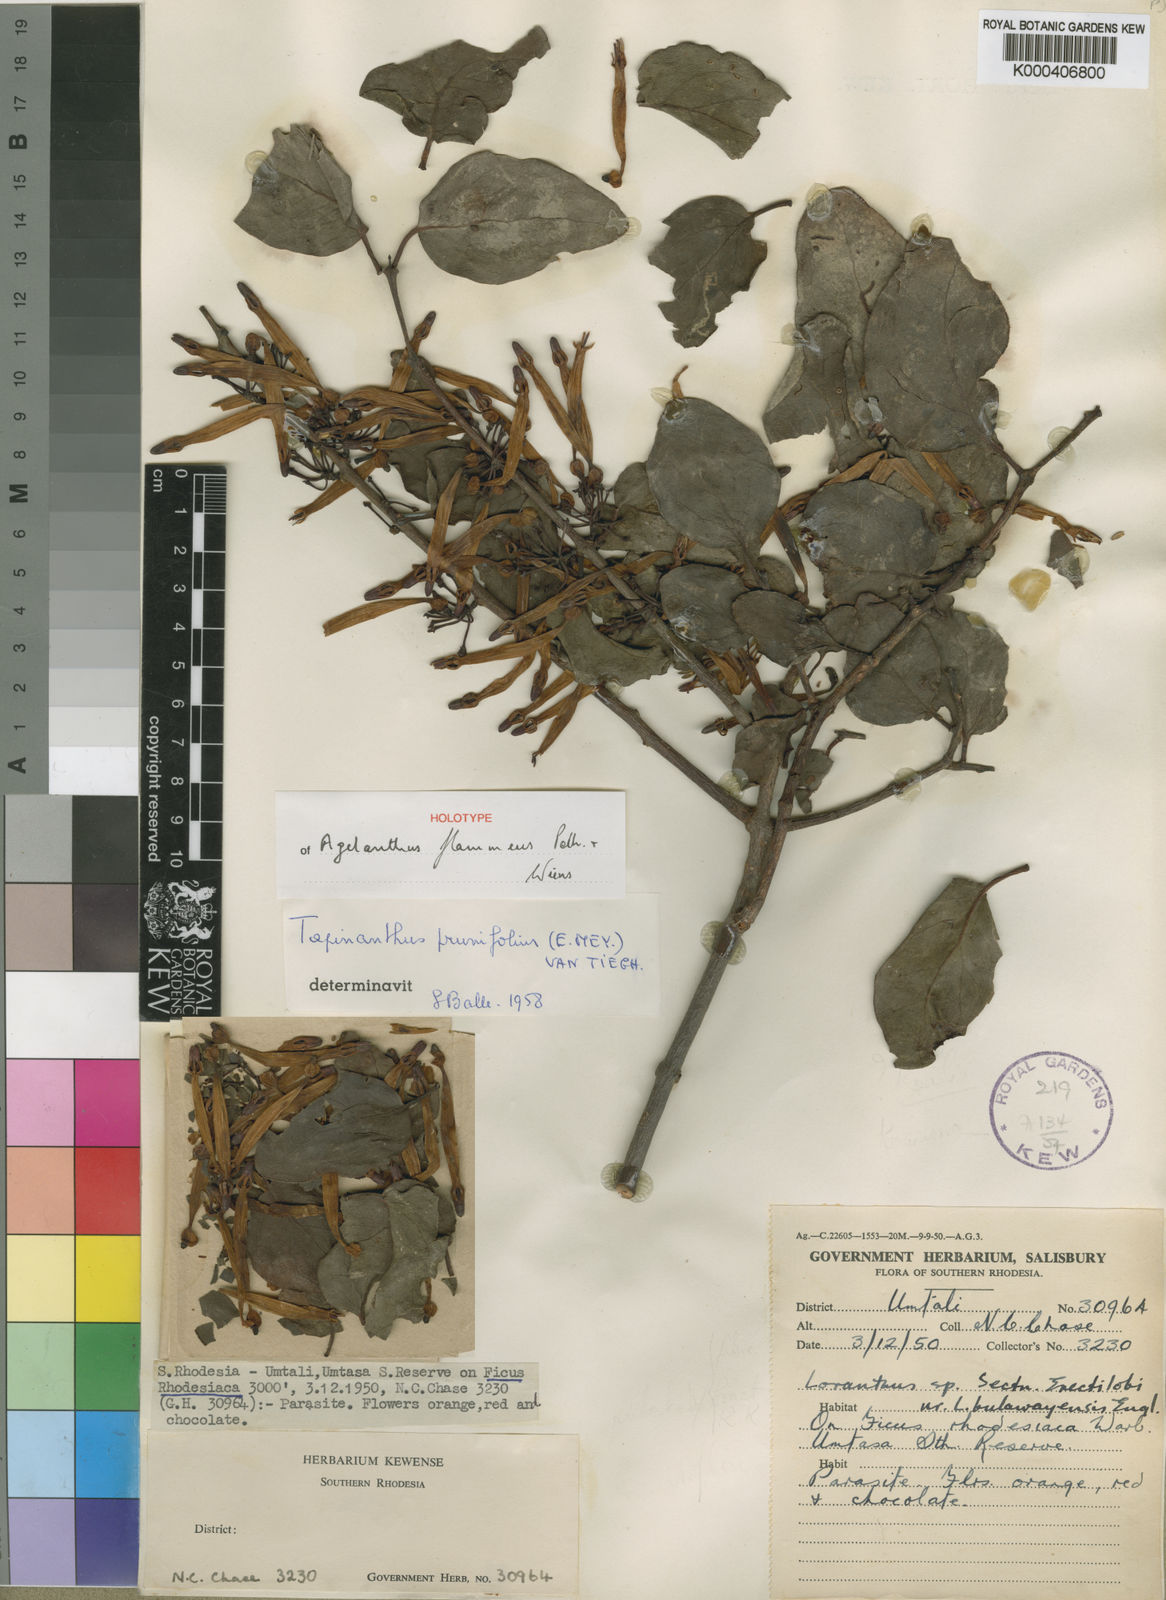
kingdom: Plantae
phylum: Tracheophyta
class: Magnoliopsida
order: Santalales
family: Loranthaceae
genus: Agelanthus
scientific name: Agelanthus flammeus
